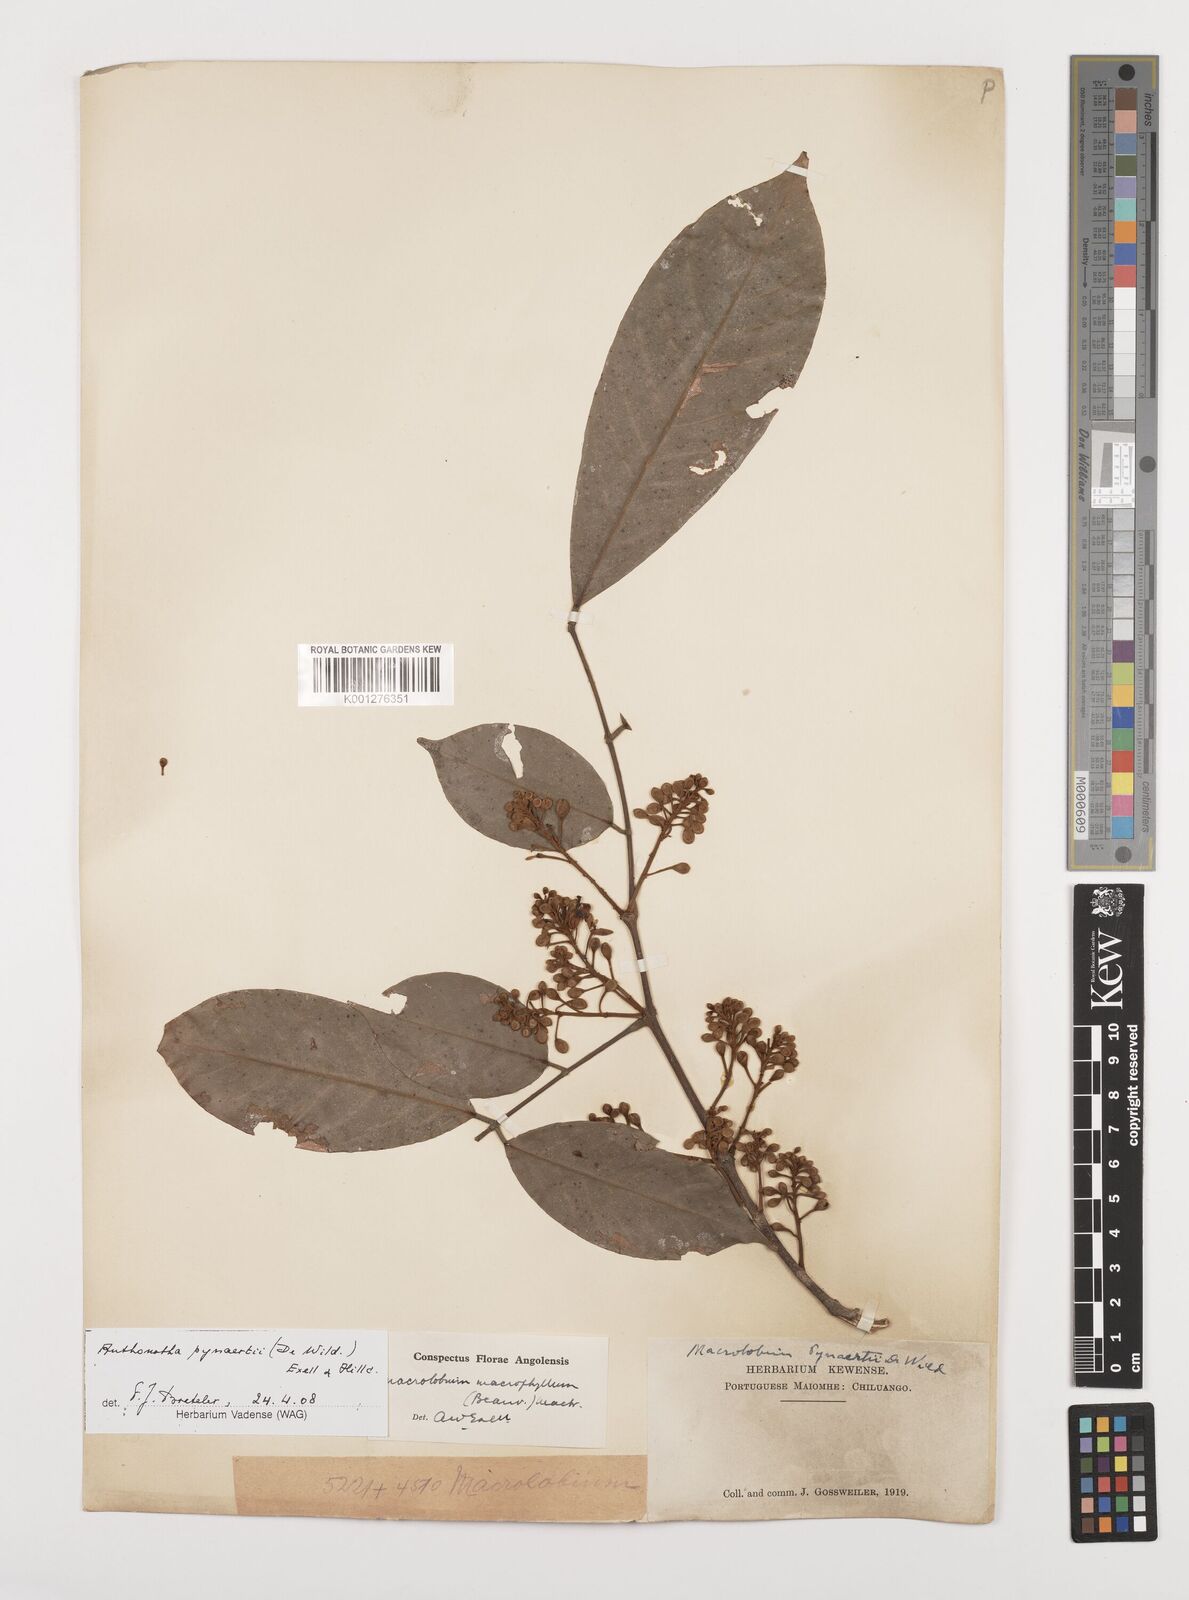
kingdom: Plantae
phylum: Tracheophyta
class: Magnoliopsida
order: Fabales
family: Fabaceae
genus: Anthonotha
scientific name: Anthonotha pynaertii
